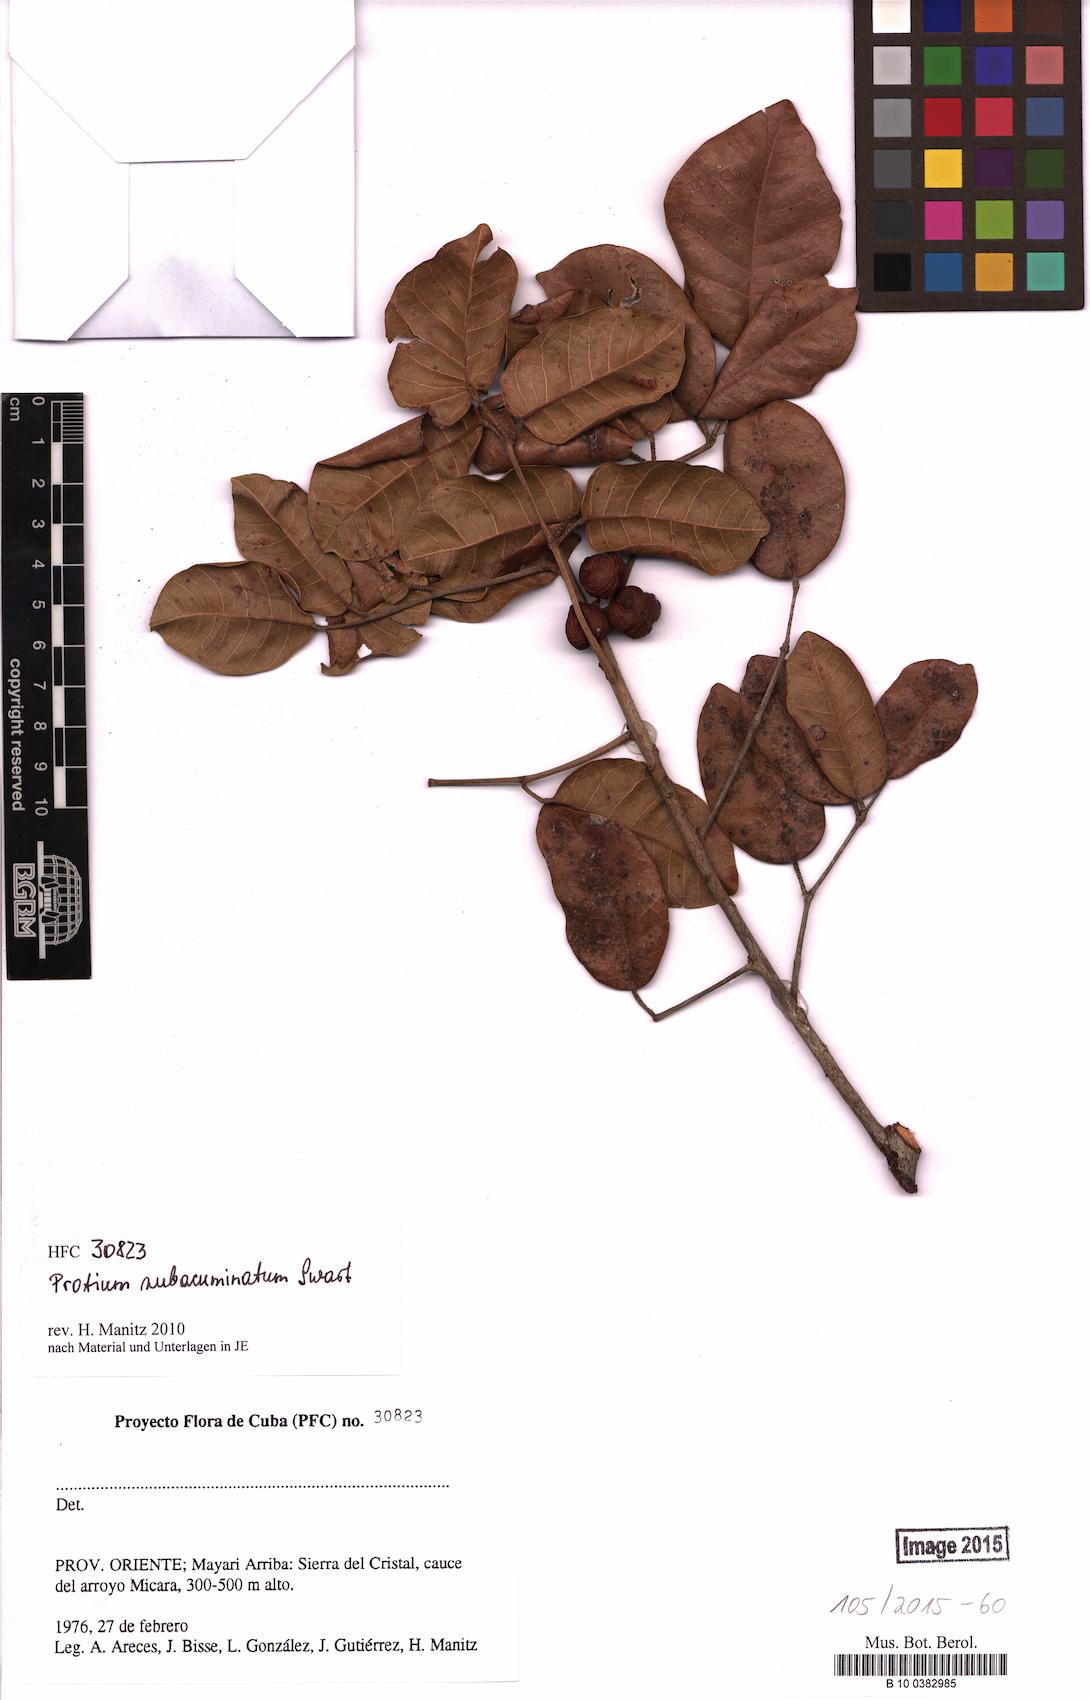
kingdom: Plantae
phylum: Tracheophyta
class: Magnoliopsida
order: Sapindales
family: Burseraceae
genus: Protium
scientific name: Protium subacuminatum
